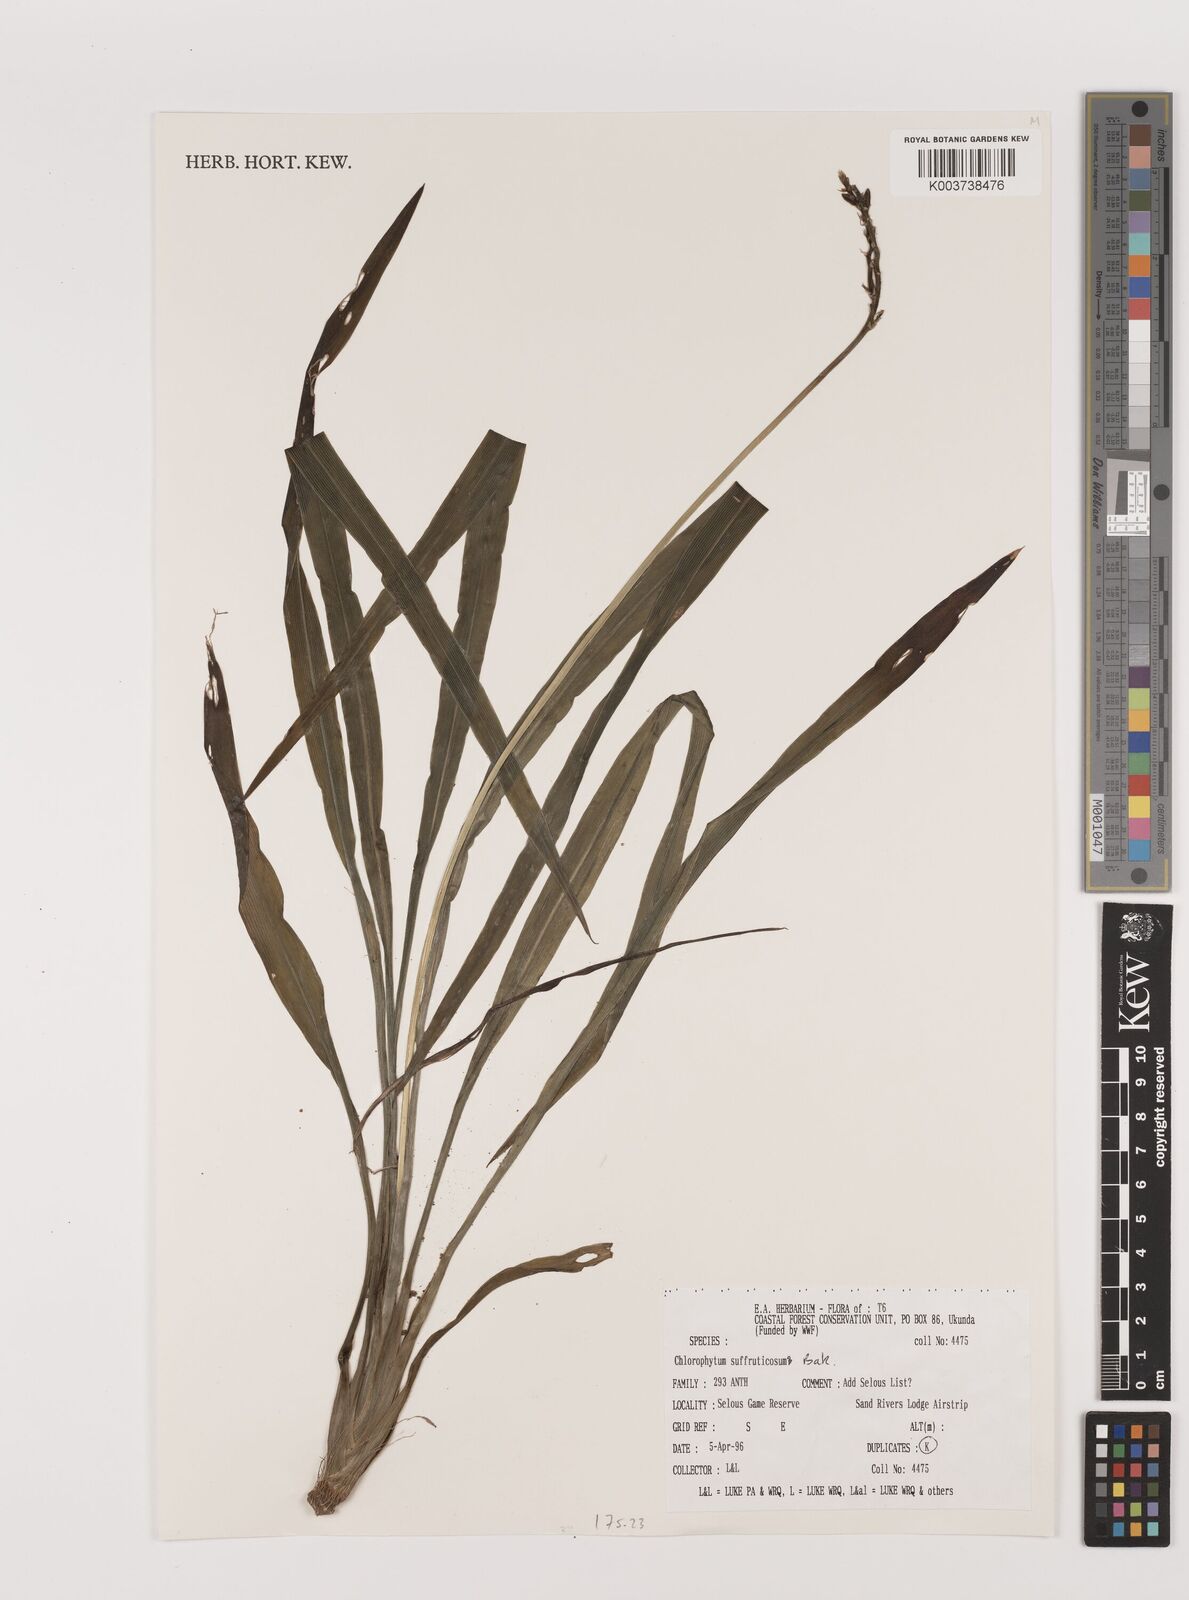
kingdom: Plantae
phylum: Tracheophyta
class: Liliopsida
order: Asparagales
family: Asparagaceae
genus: Chlorophytum
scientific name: Chlorophytum suffruticosum
